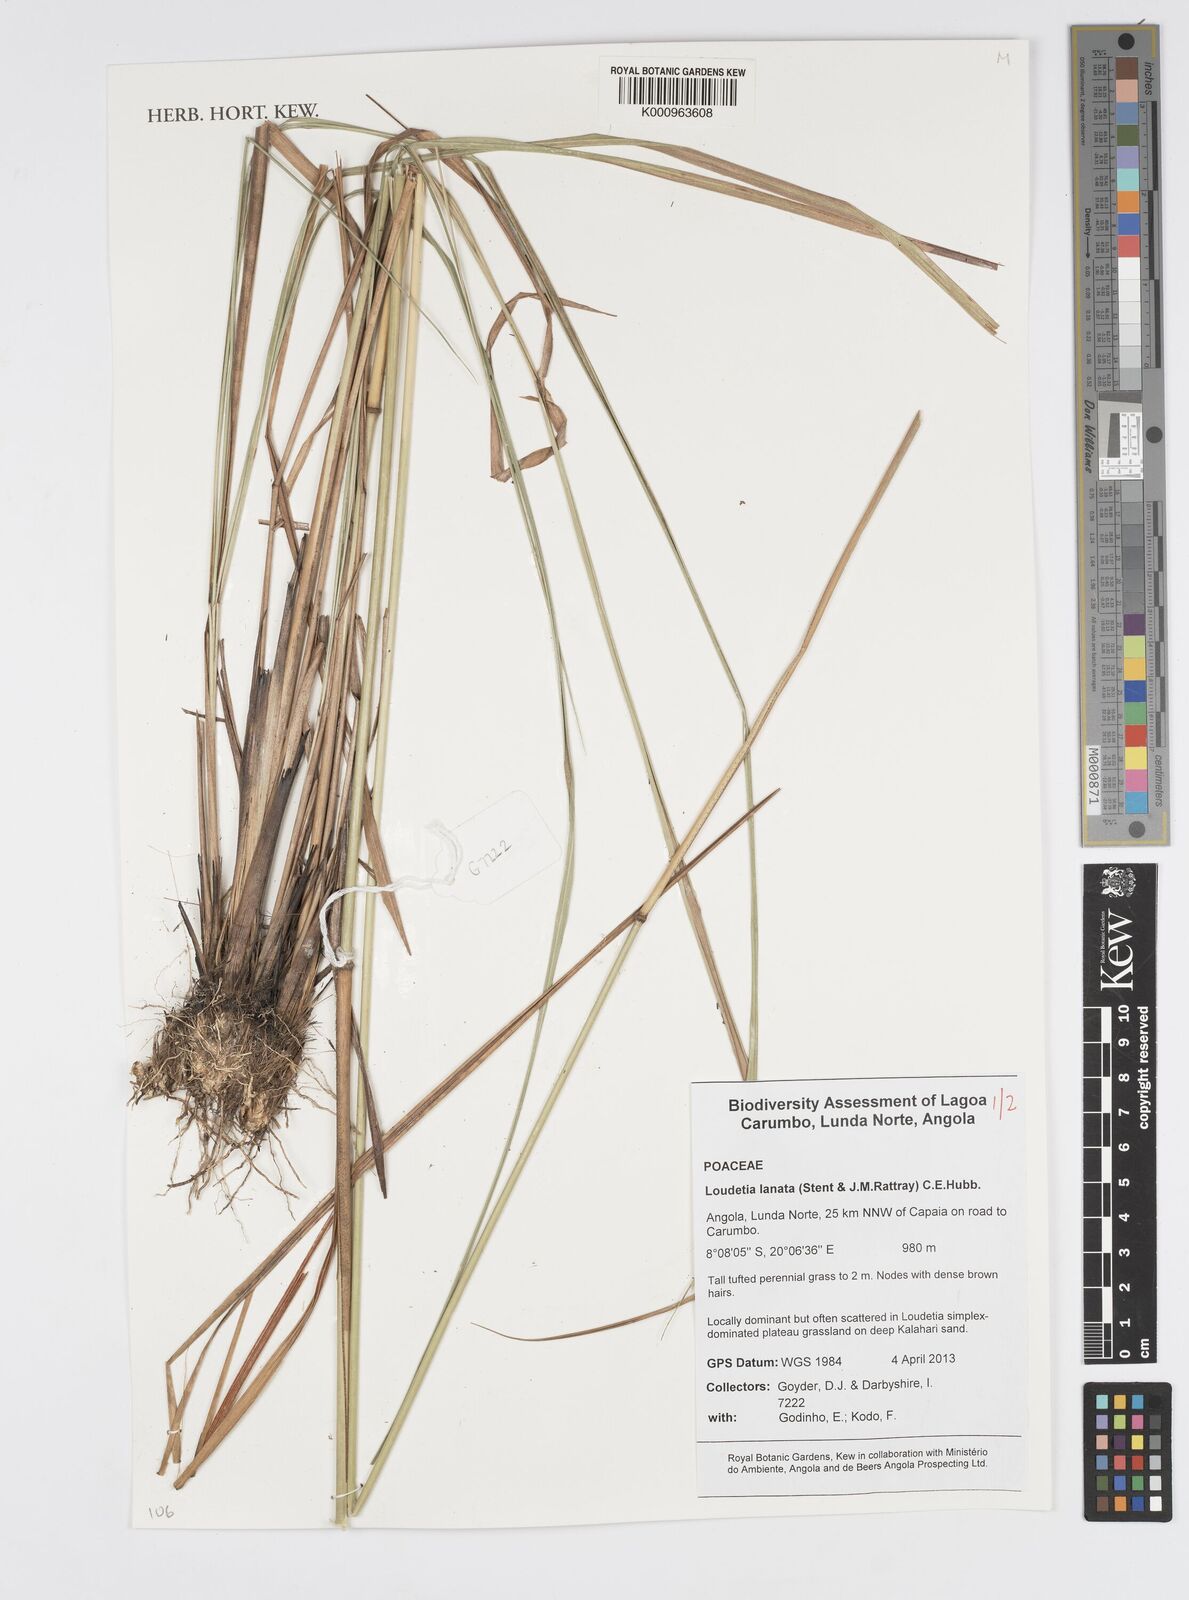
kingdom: Plantae
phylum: Tracheophyta
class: Liliopsida
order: Poales
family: Poaceae
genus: Loudetia
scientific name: Loudetia lanata
